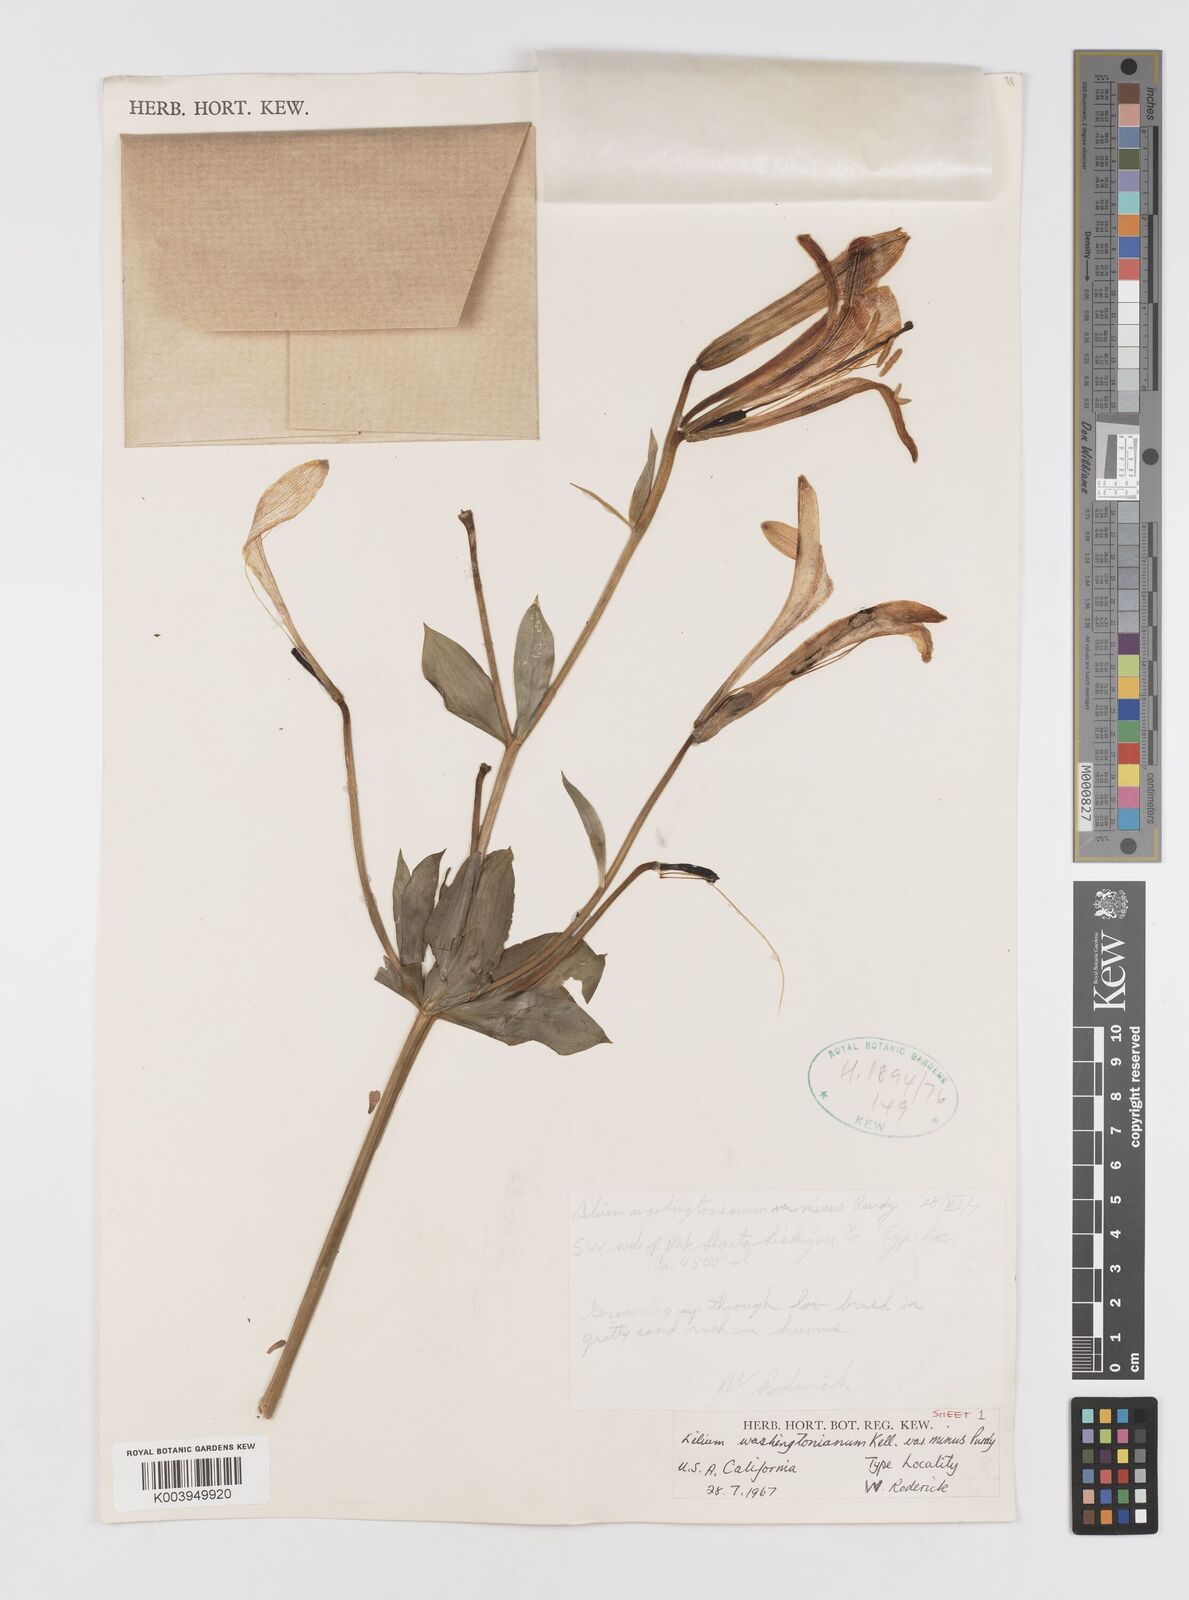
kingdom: Plantae
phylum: Tracheophyta
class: Liliopsida
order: Liliales
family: Liliaceae
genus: Lilium
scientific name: Lilium washingtonianum
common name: Washington lily
